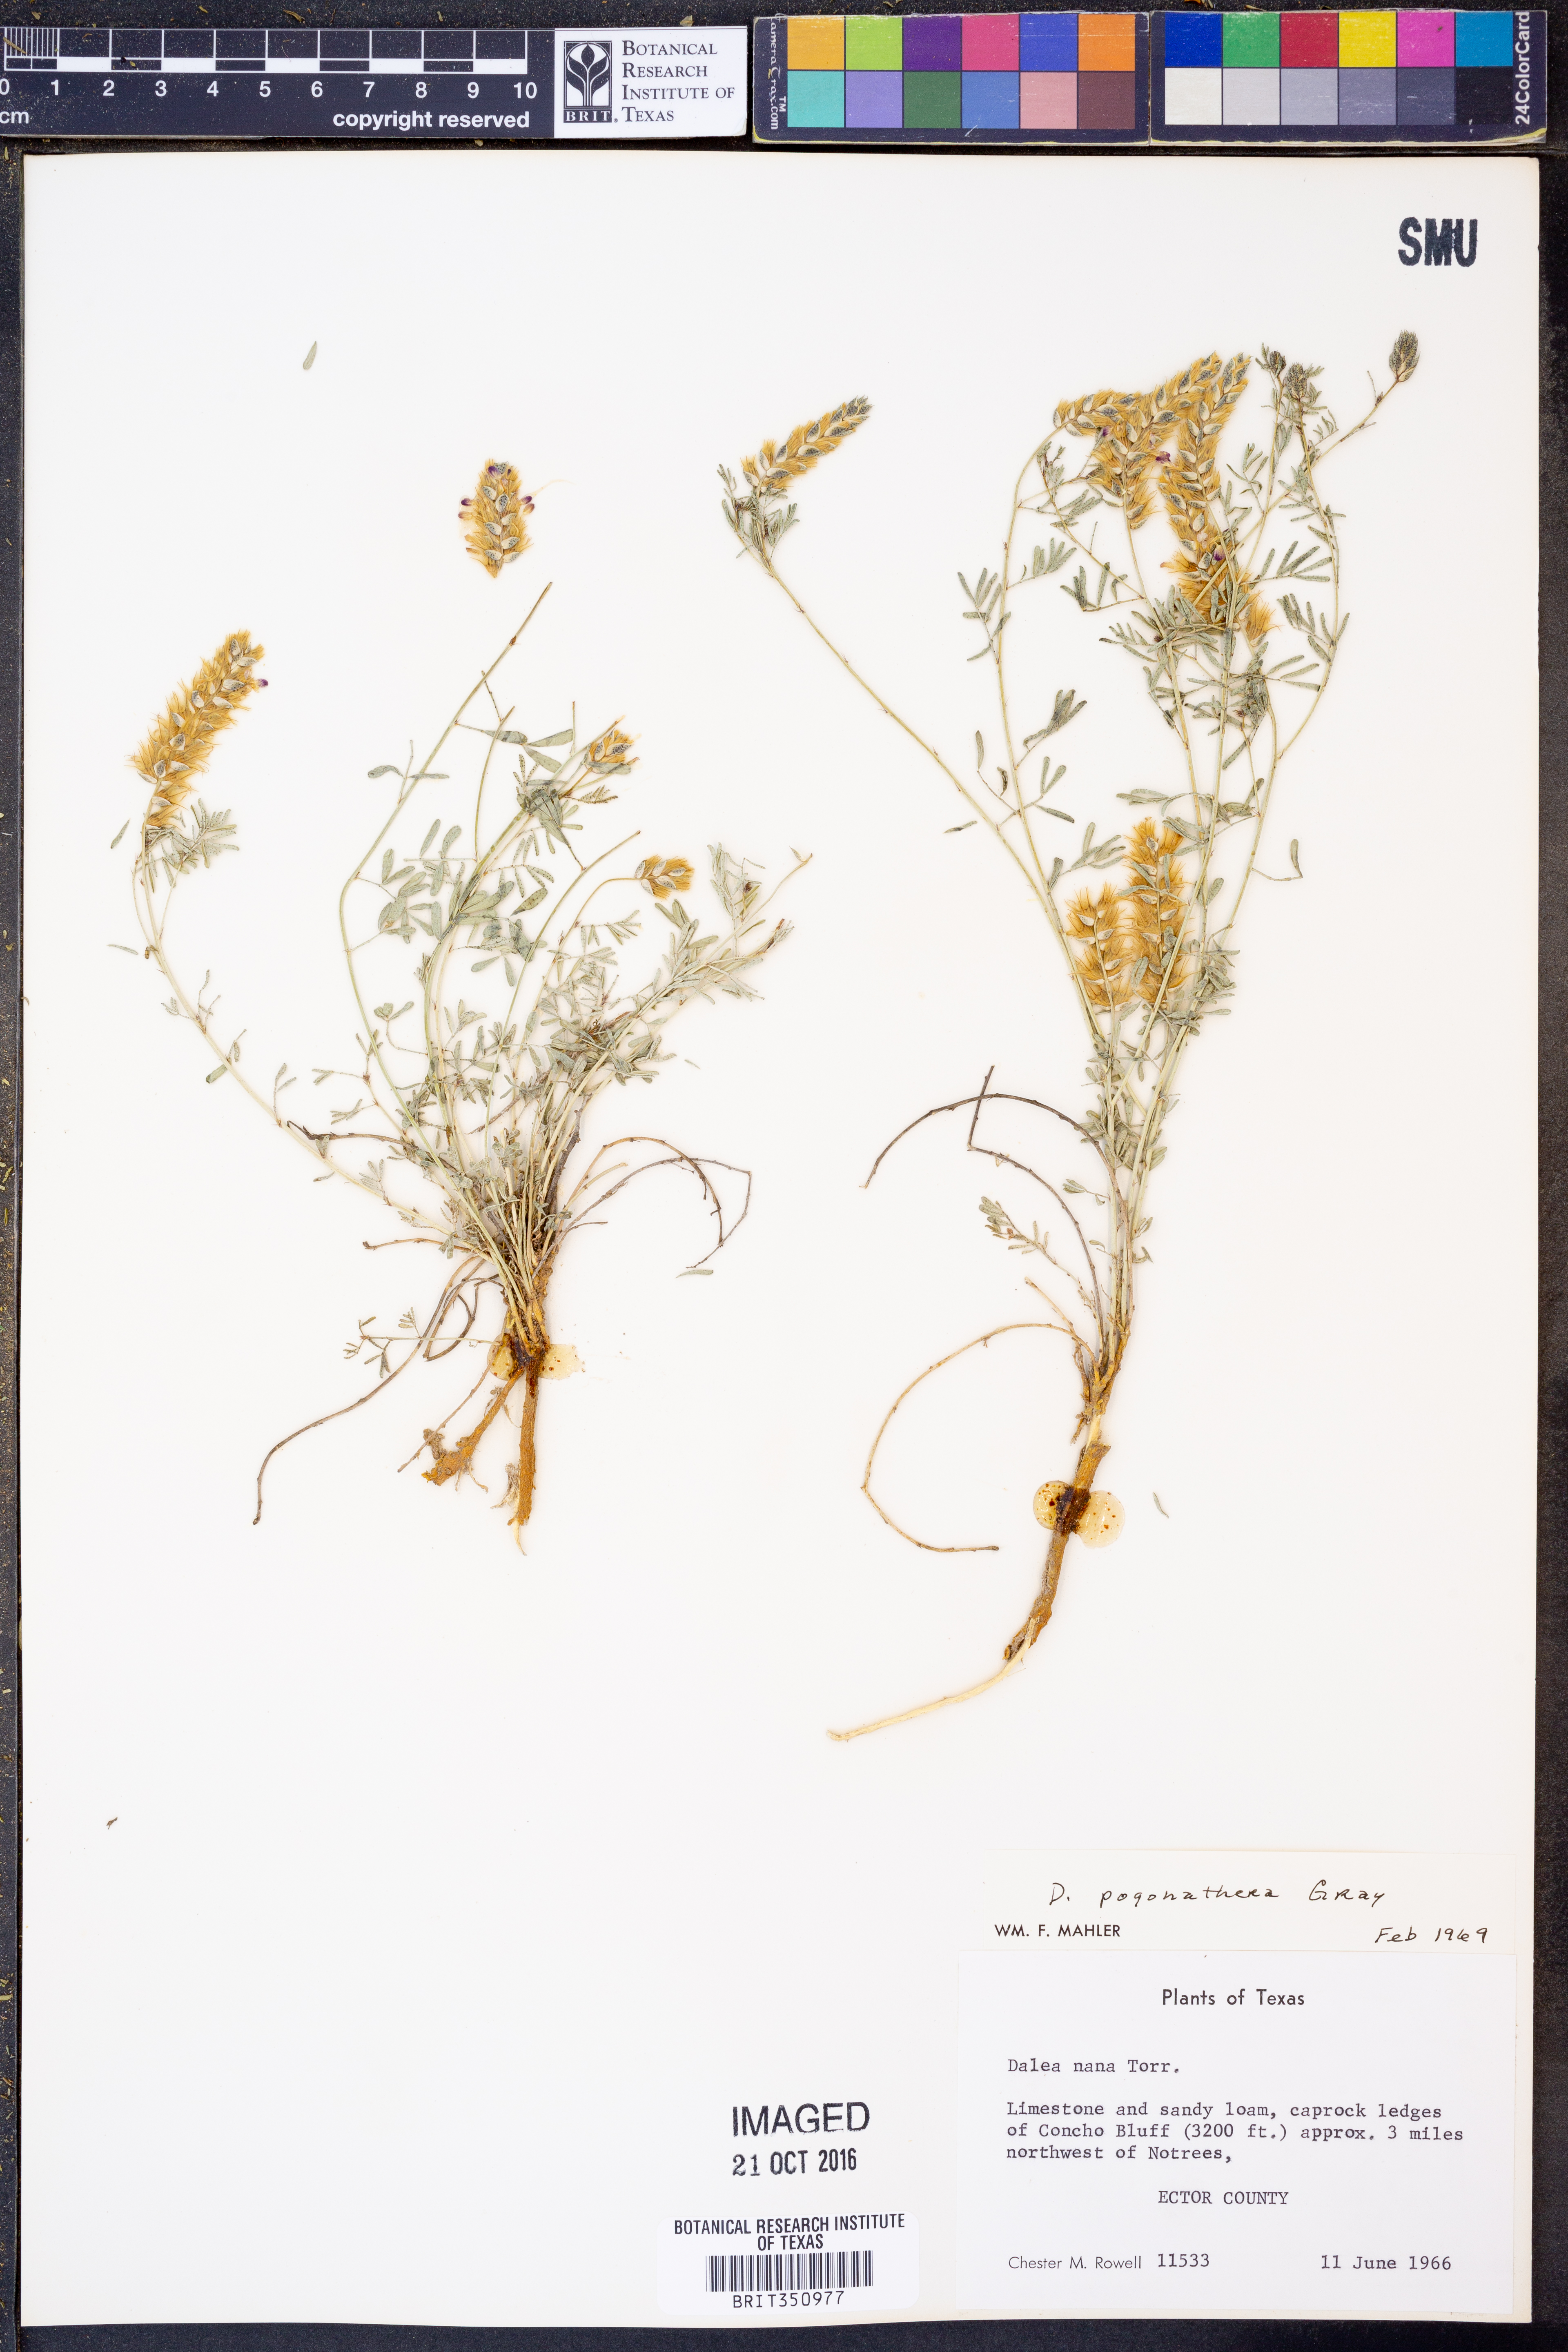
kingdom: Plantae
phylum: Tracheophyta
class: Magnoliopsida
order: Fabales
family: Fabaceae
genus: Dalea
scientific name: Dalea pogonathera
